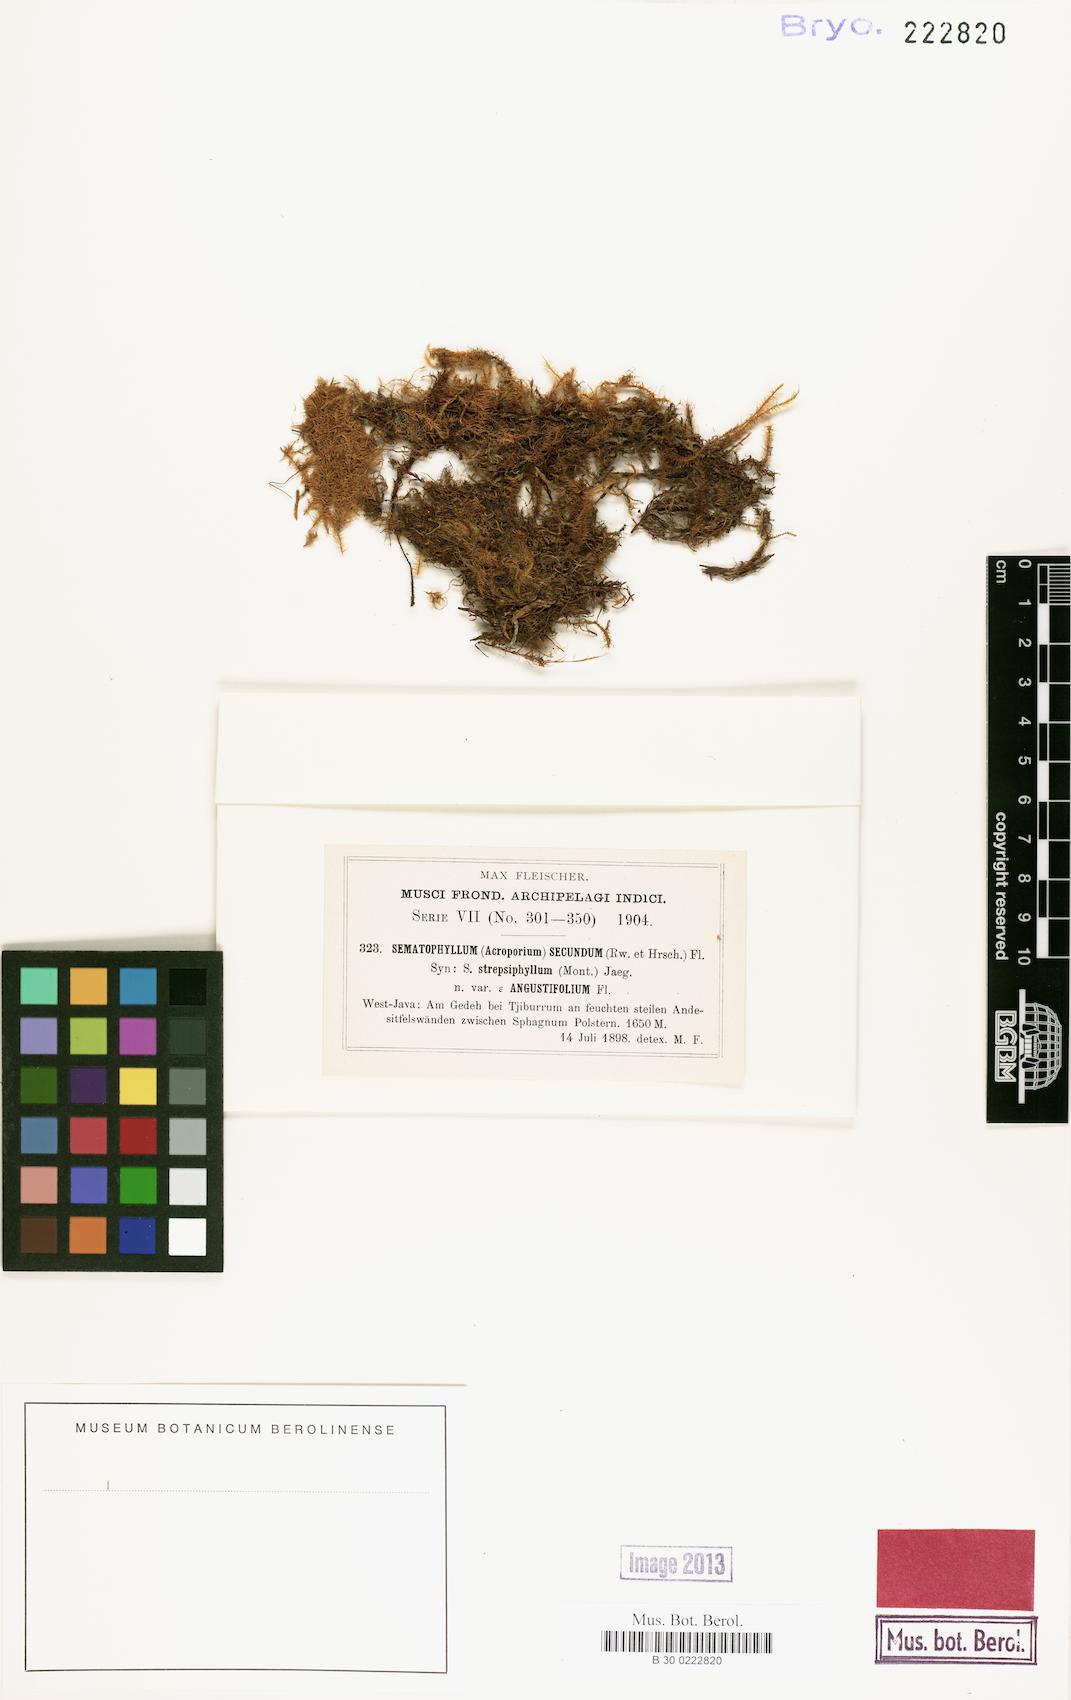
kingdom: Plantae
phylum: Bryophyta
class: Bryopsida
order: Hypnales
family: Sematophyllaceae
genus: Acroporium
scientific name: Acroporium secundum
